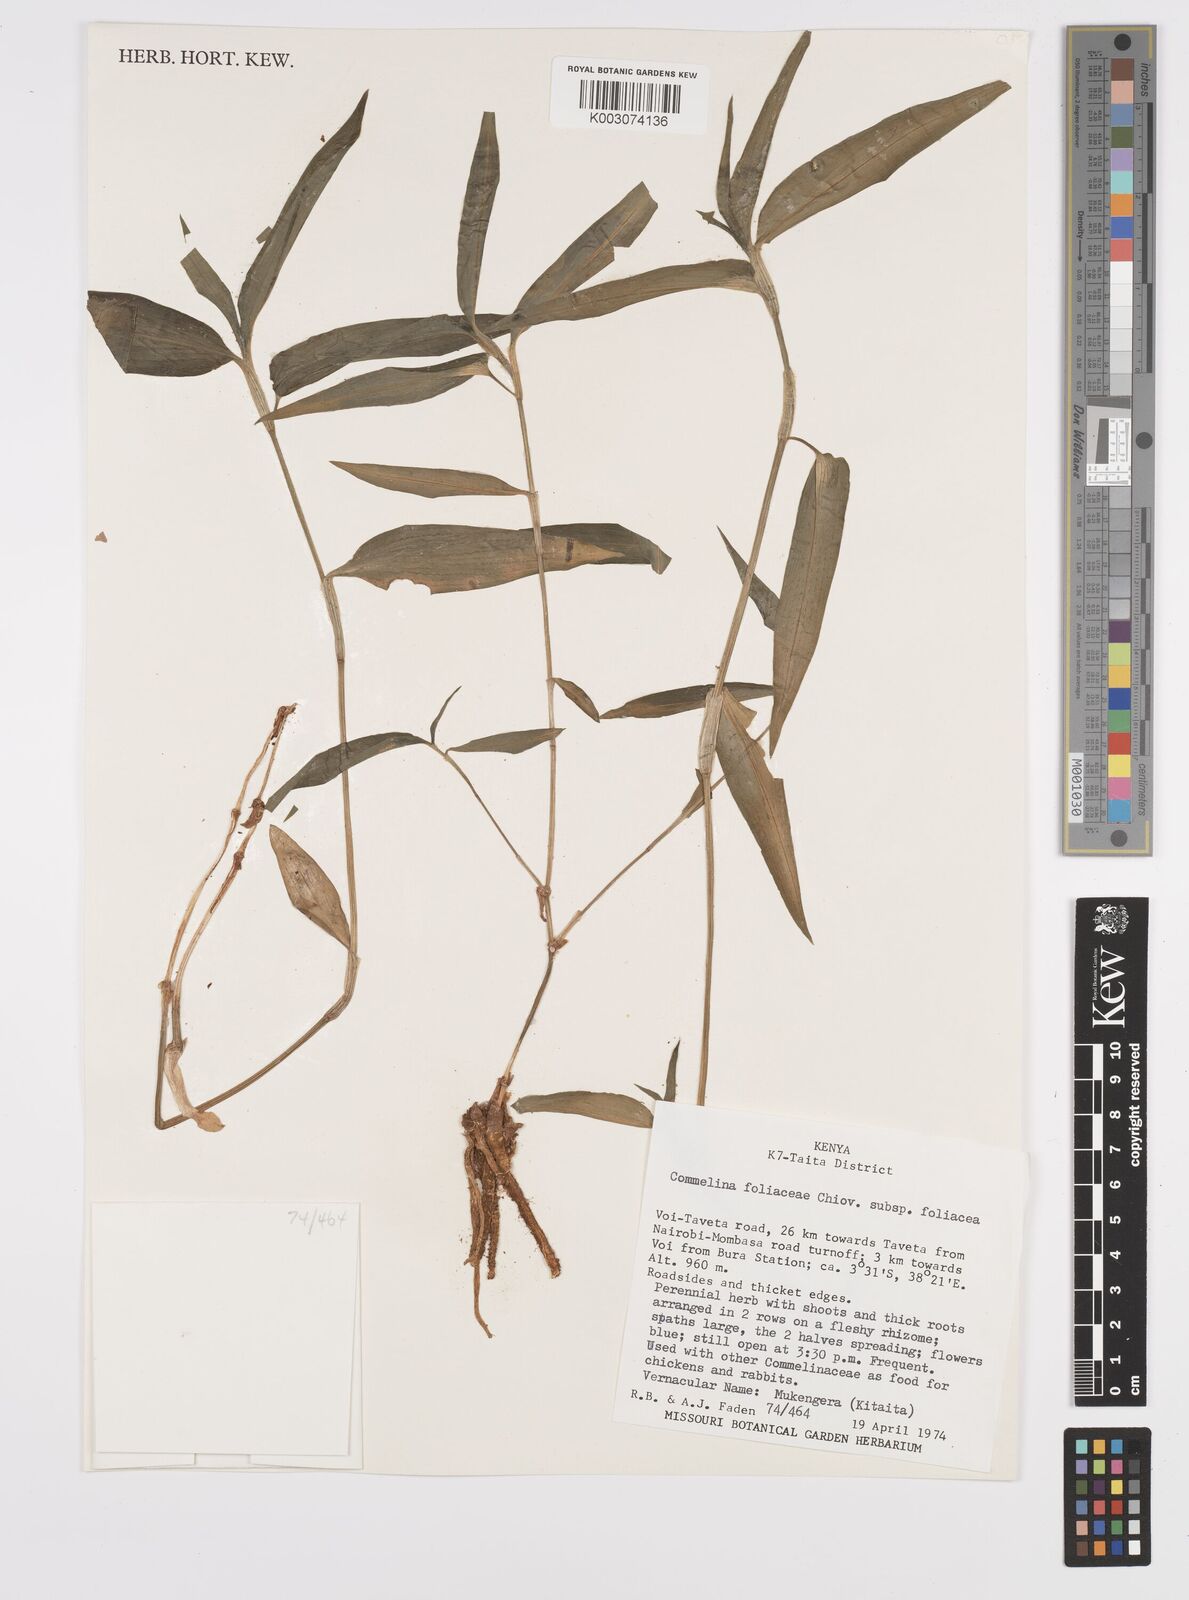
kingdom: Plantae
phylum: Tracheophyta
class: Liliopsida
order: Commelinales
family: Commelinaceae
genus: Commelina
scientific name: Commelina foliacea
